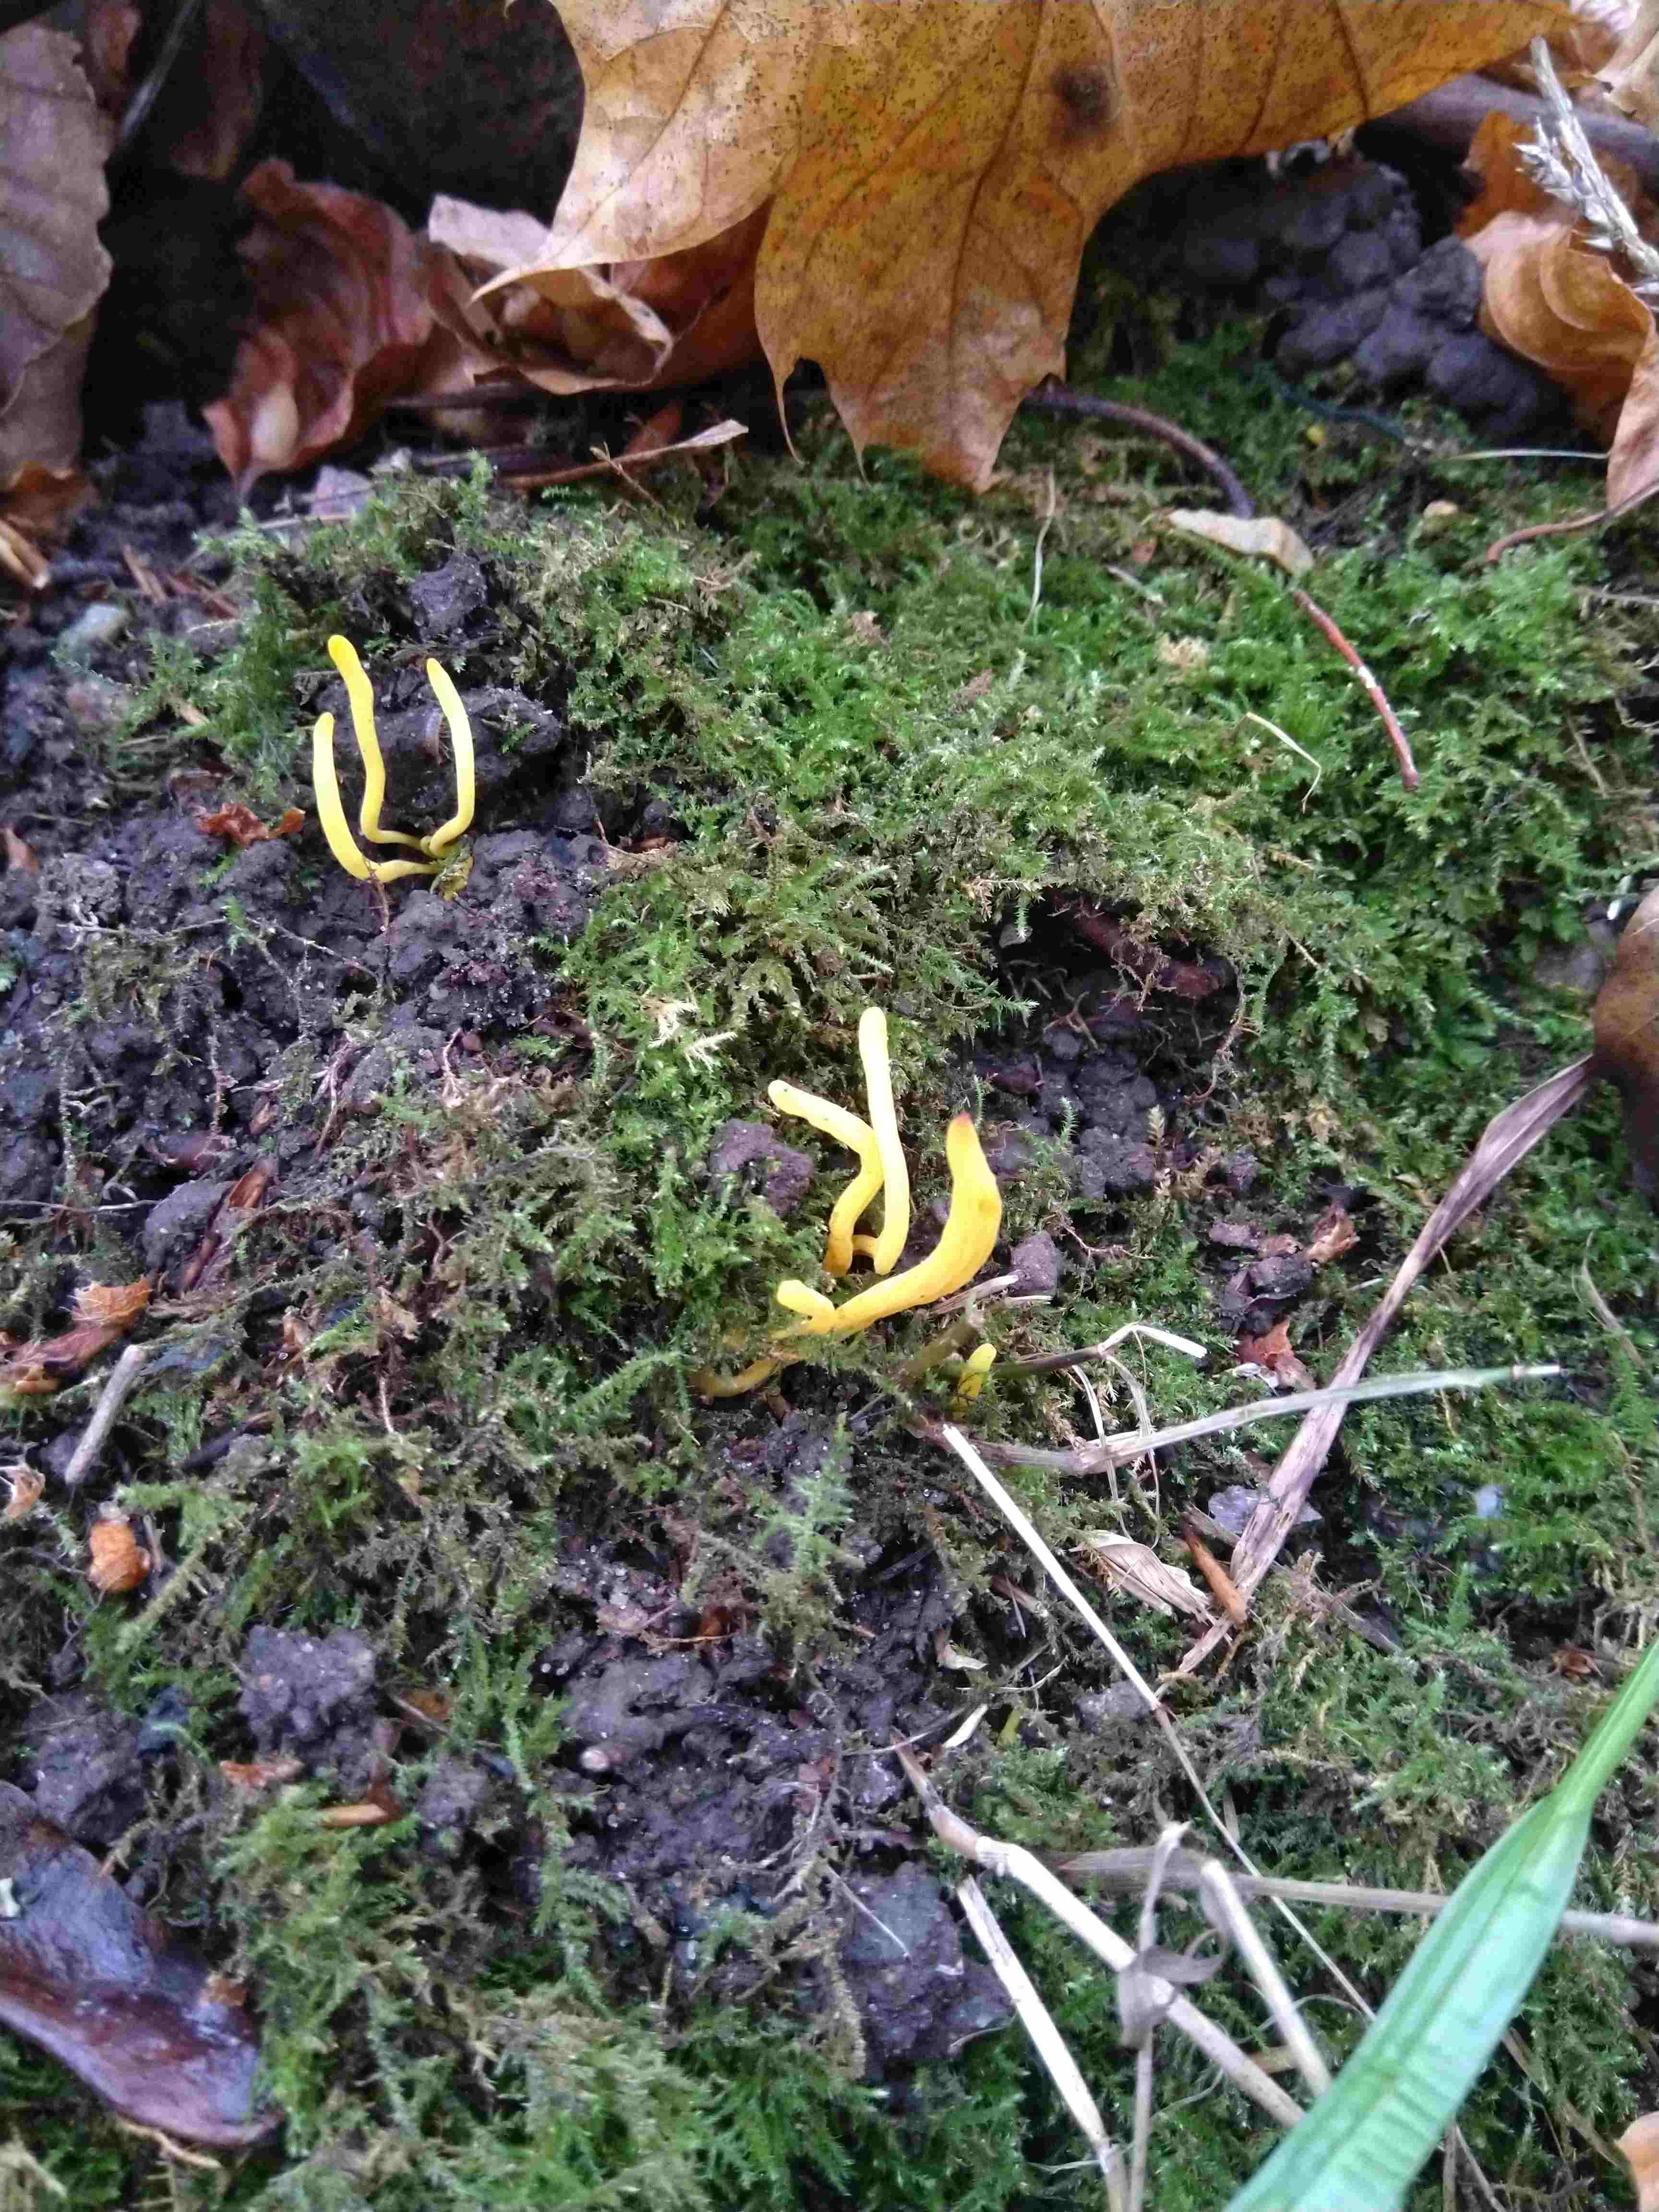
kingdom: Fungi
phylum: Basidiomycota
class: Agaricomycetes
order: Agaricales
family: Clavariaceae
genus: Clavulinopsis
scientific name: Clavulinopsis helvola
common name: orangegul køllesvamp
